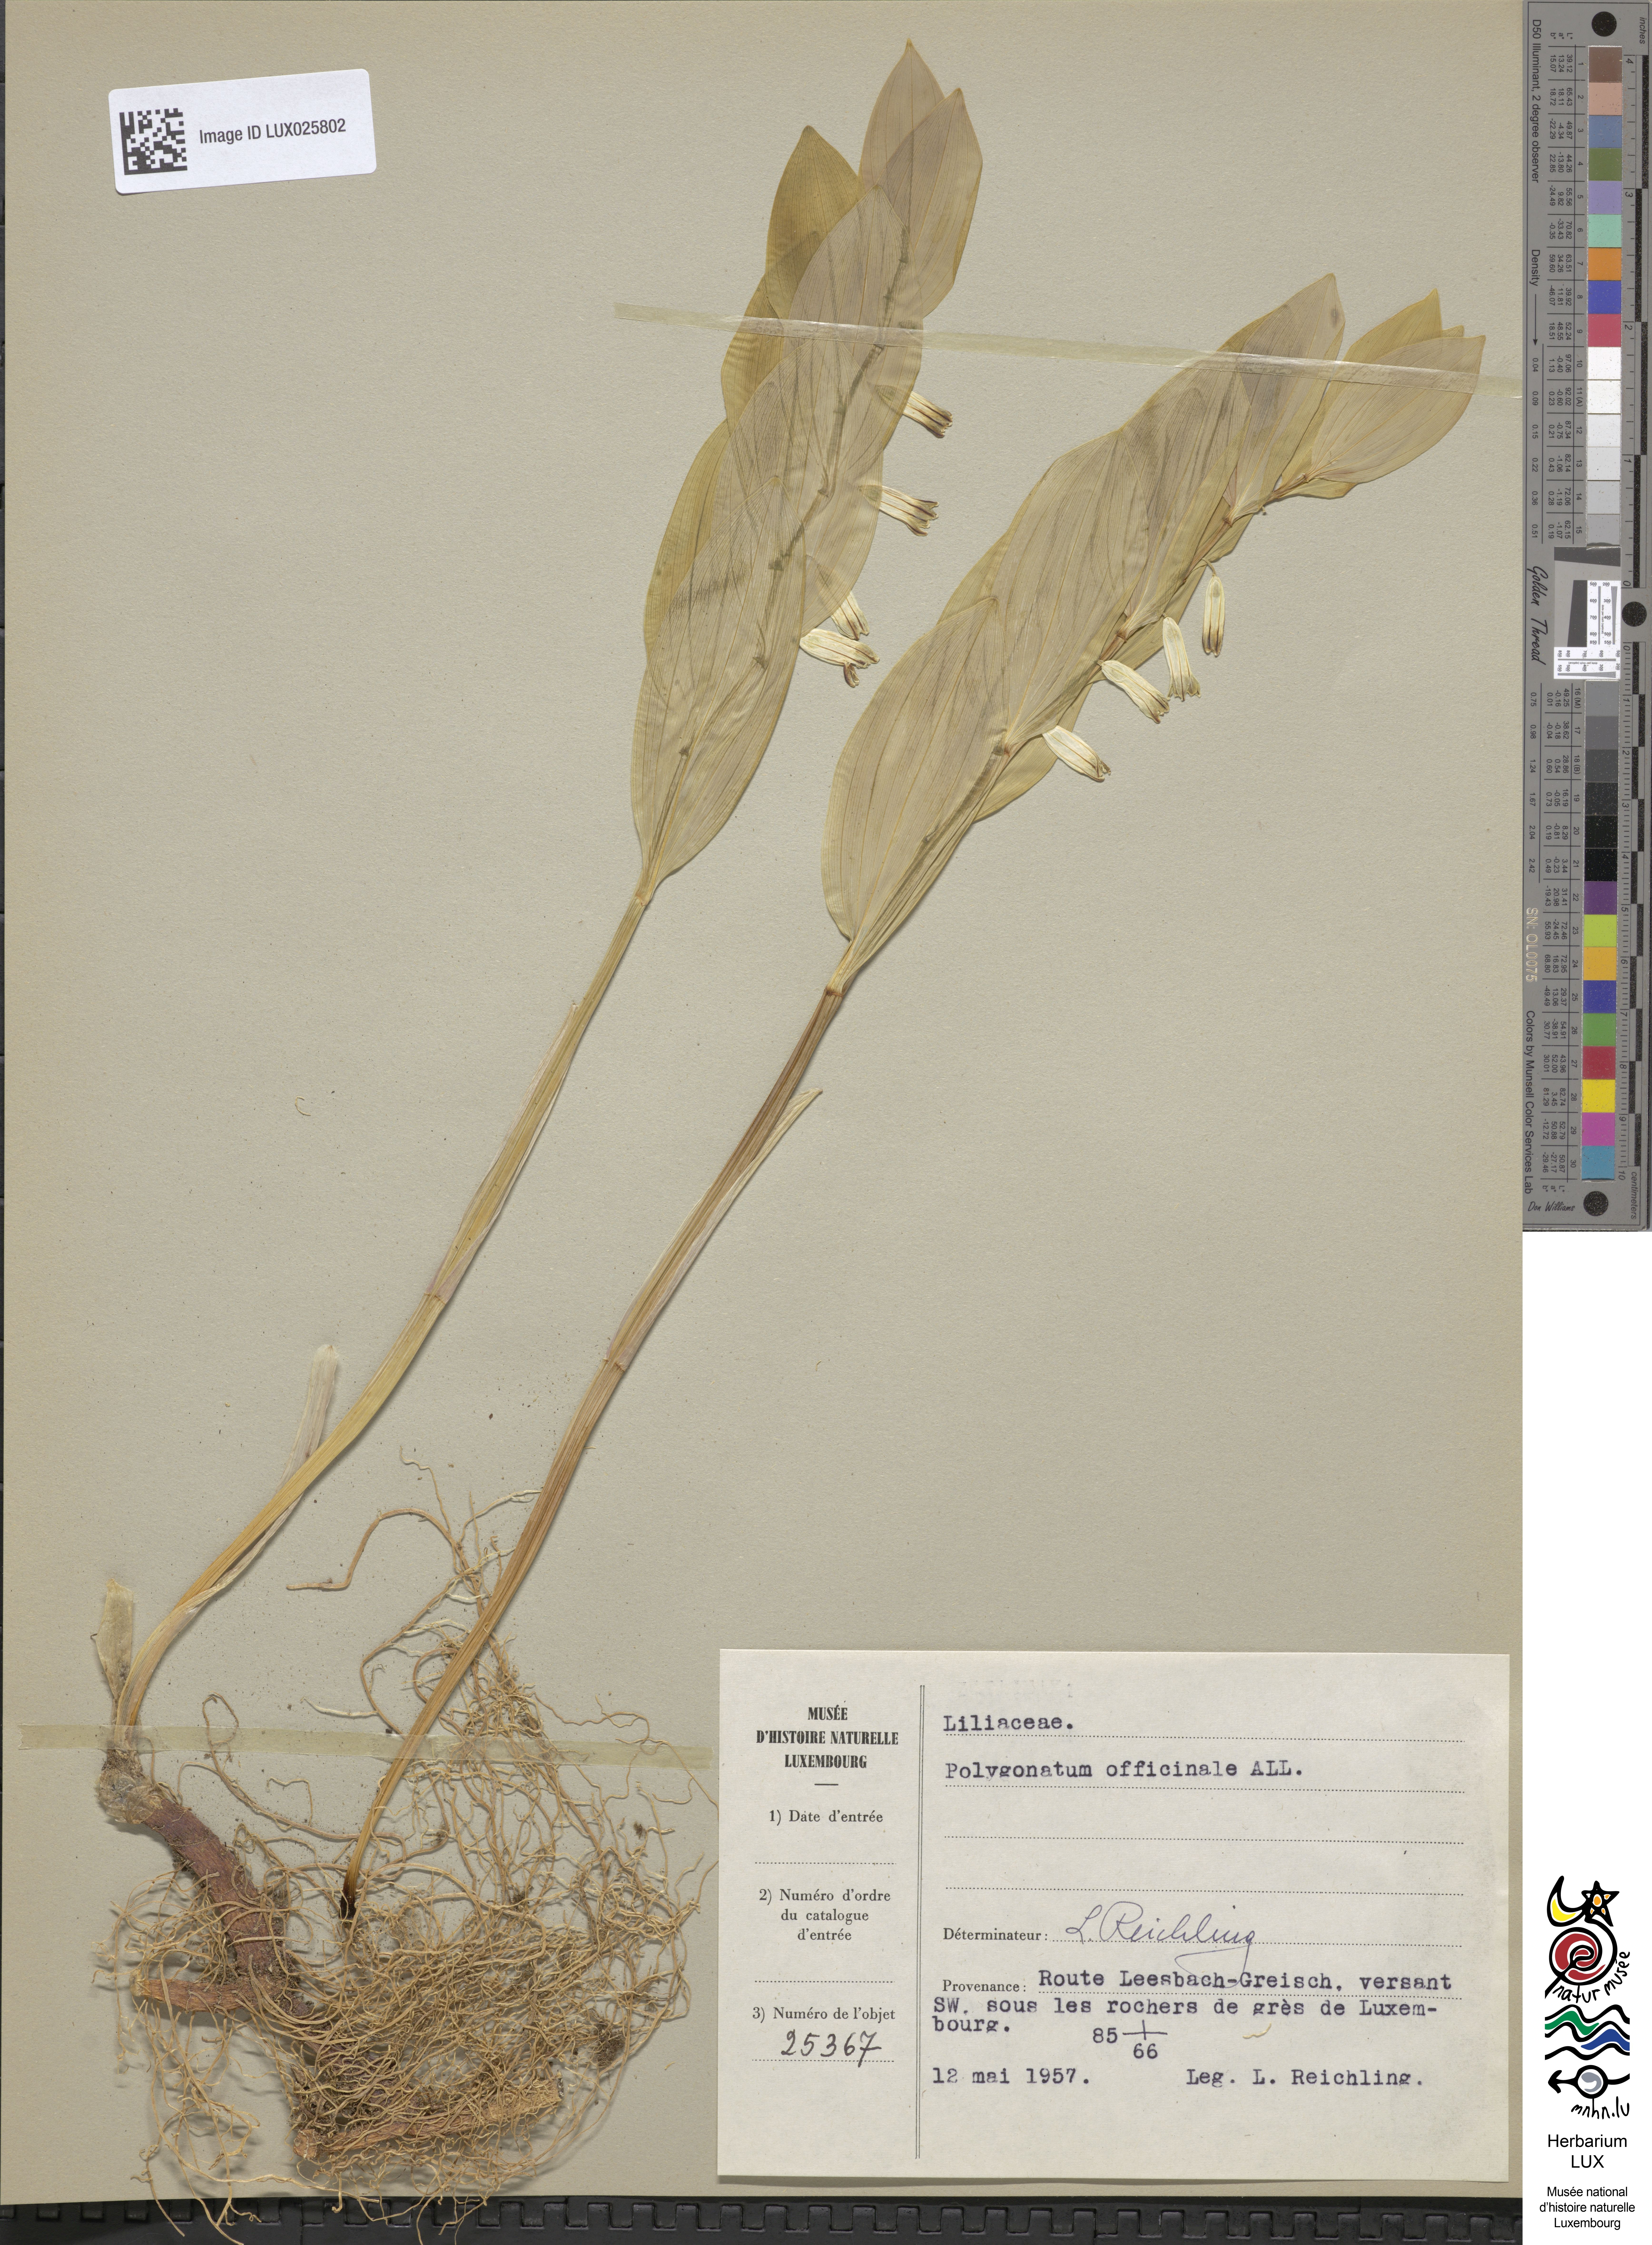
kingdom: Plantae
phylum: Tracheophyta
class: Liliopsida
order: Asparagales
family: Asparagaceae
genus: Polygonatum
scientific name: Polygonatum odoratum
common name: Angular solomon's-seal
